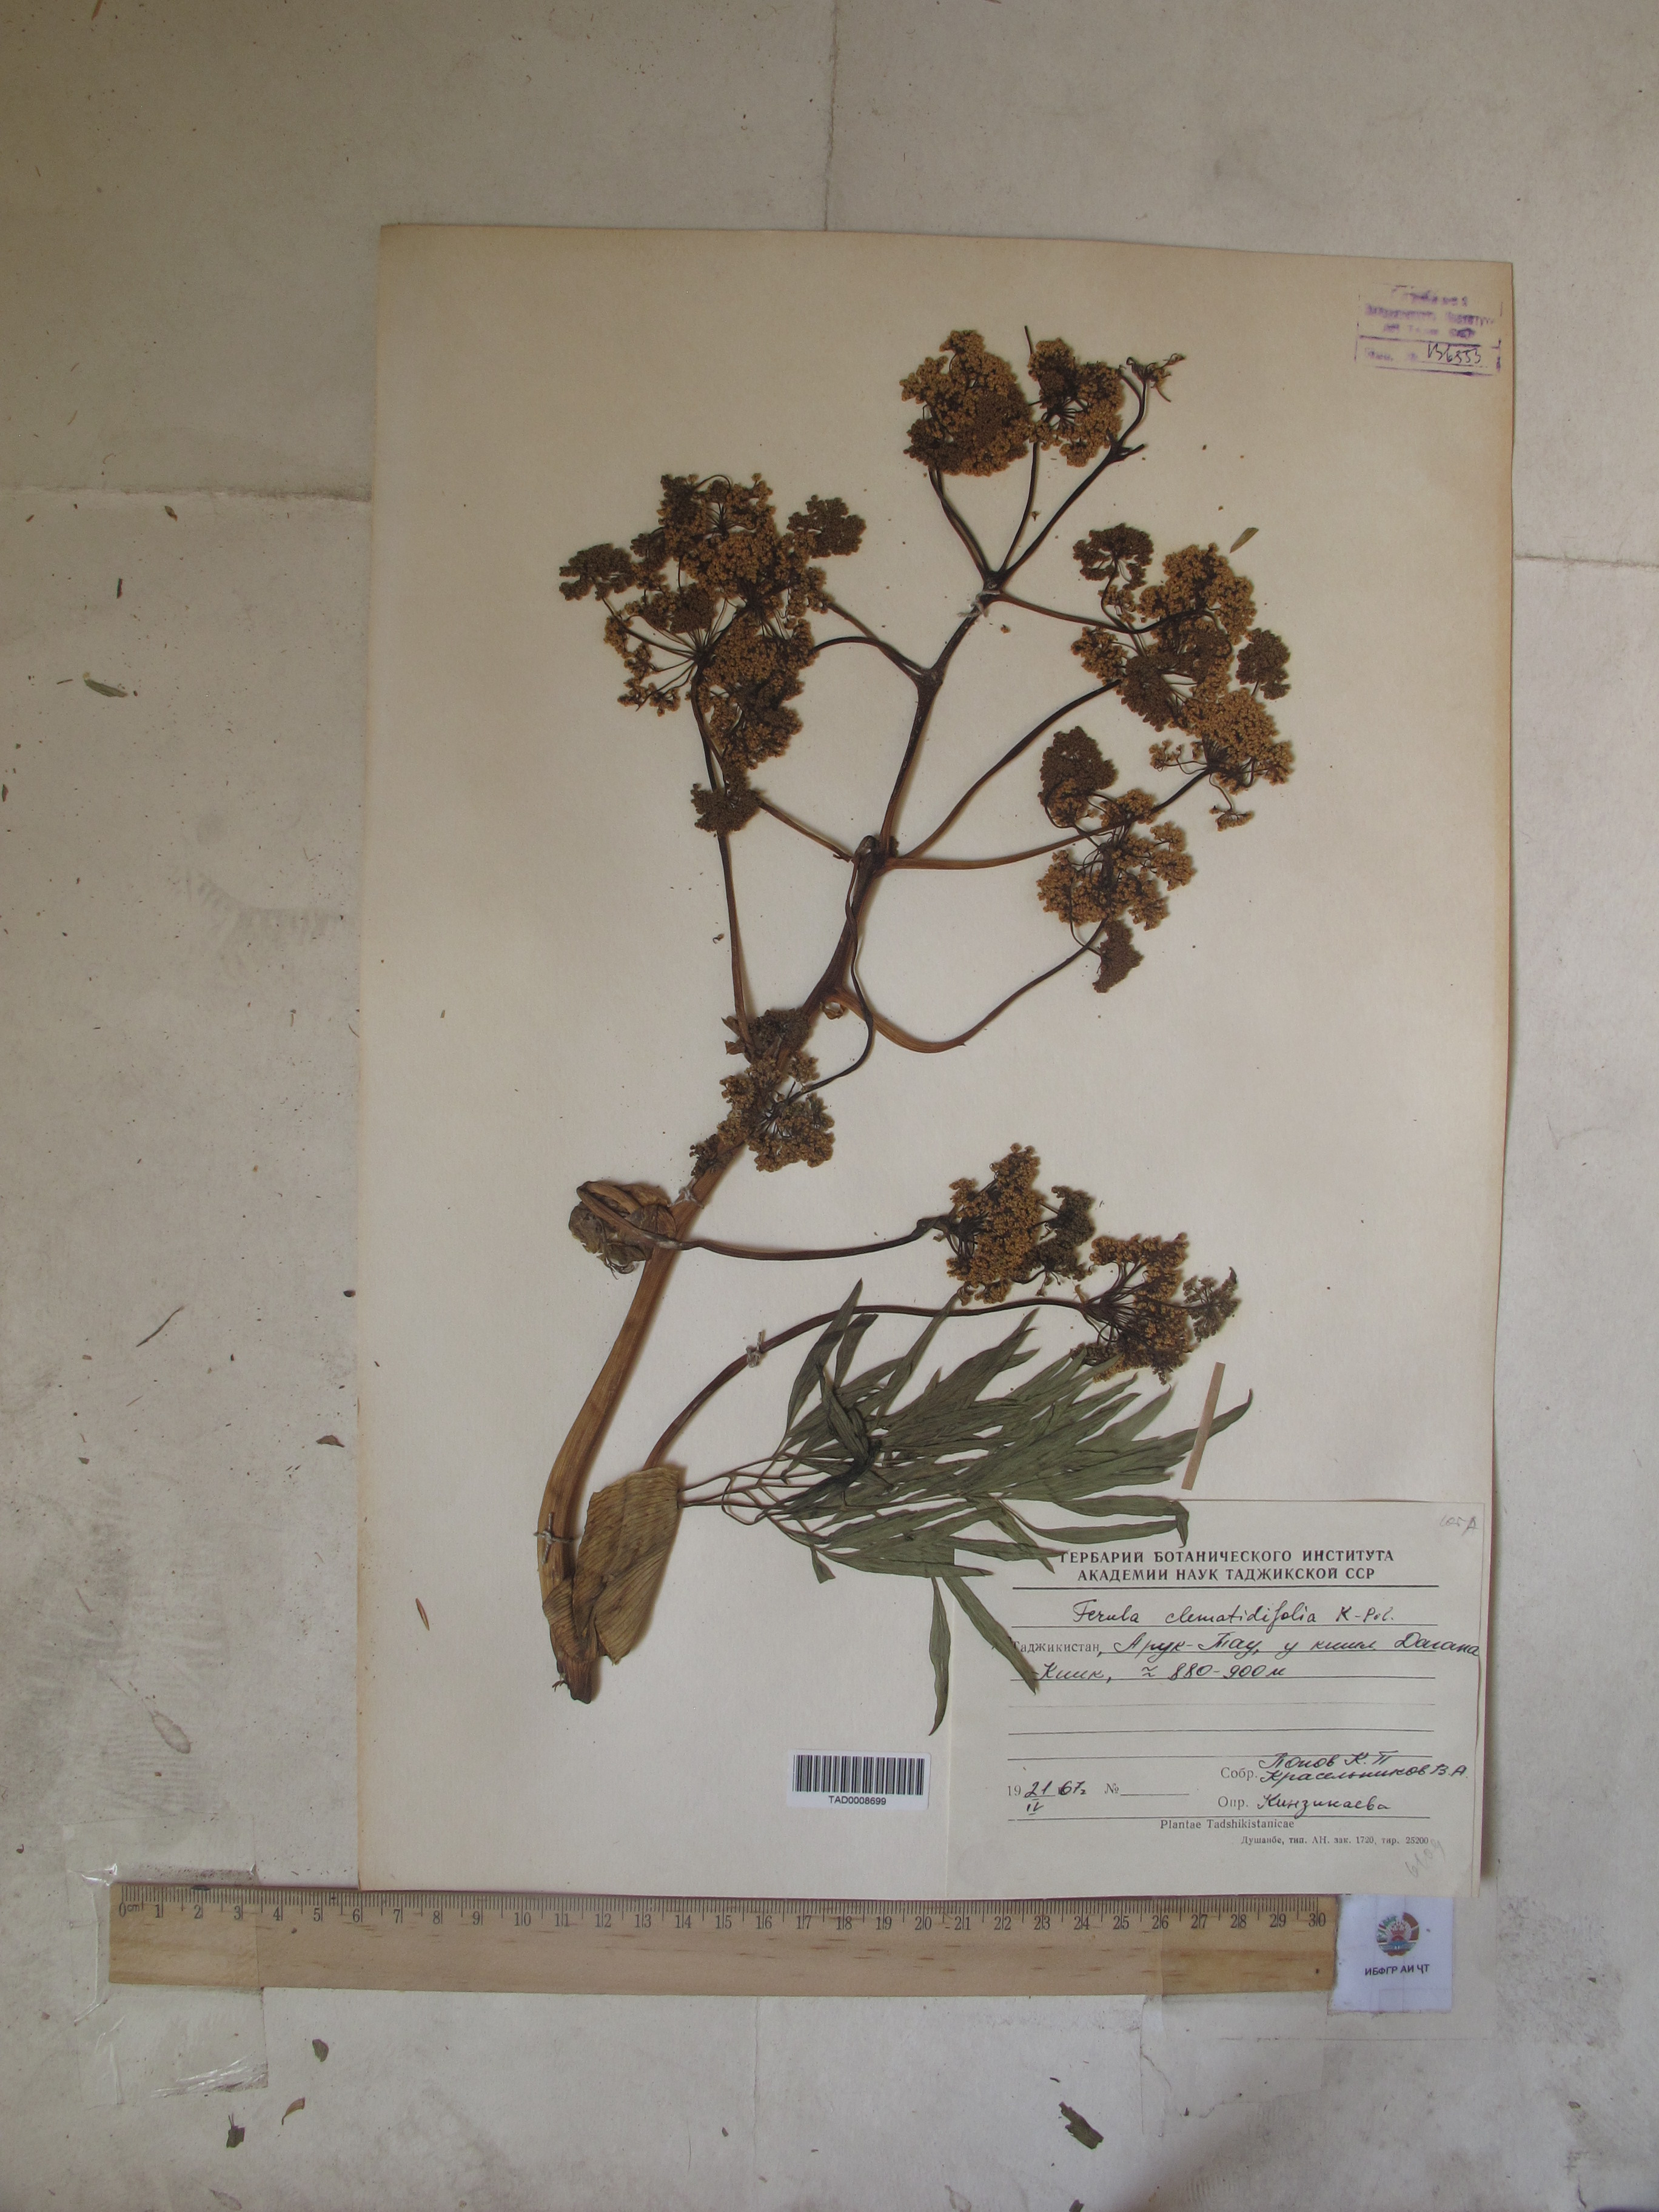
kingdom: Plantae
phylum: Tracheophyta
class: Magnoliopsida
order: Apiales
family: Apiaceae
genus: Ferula
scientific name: Ferula clematidifolia
